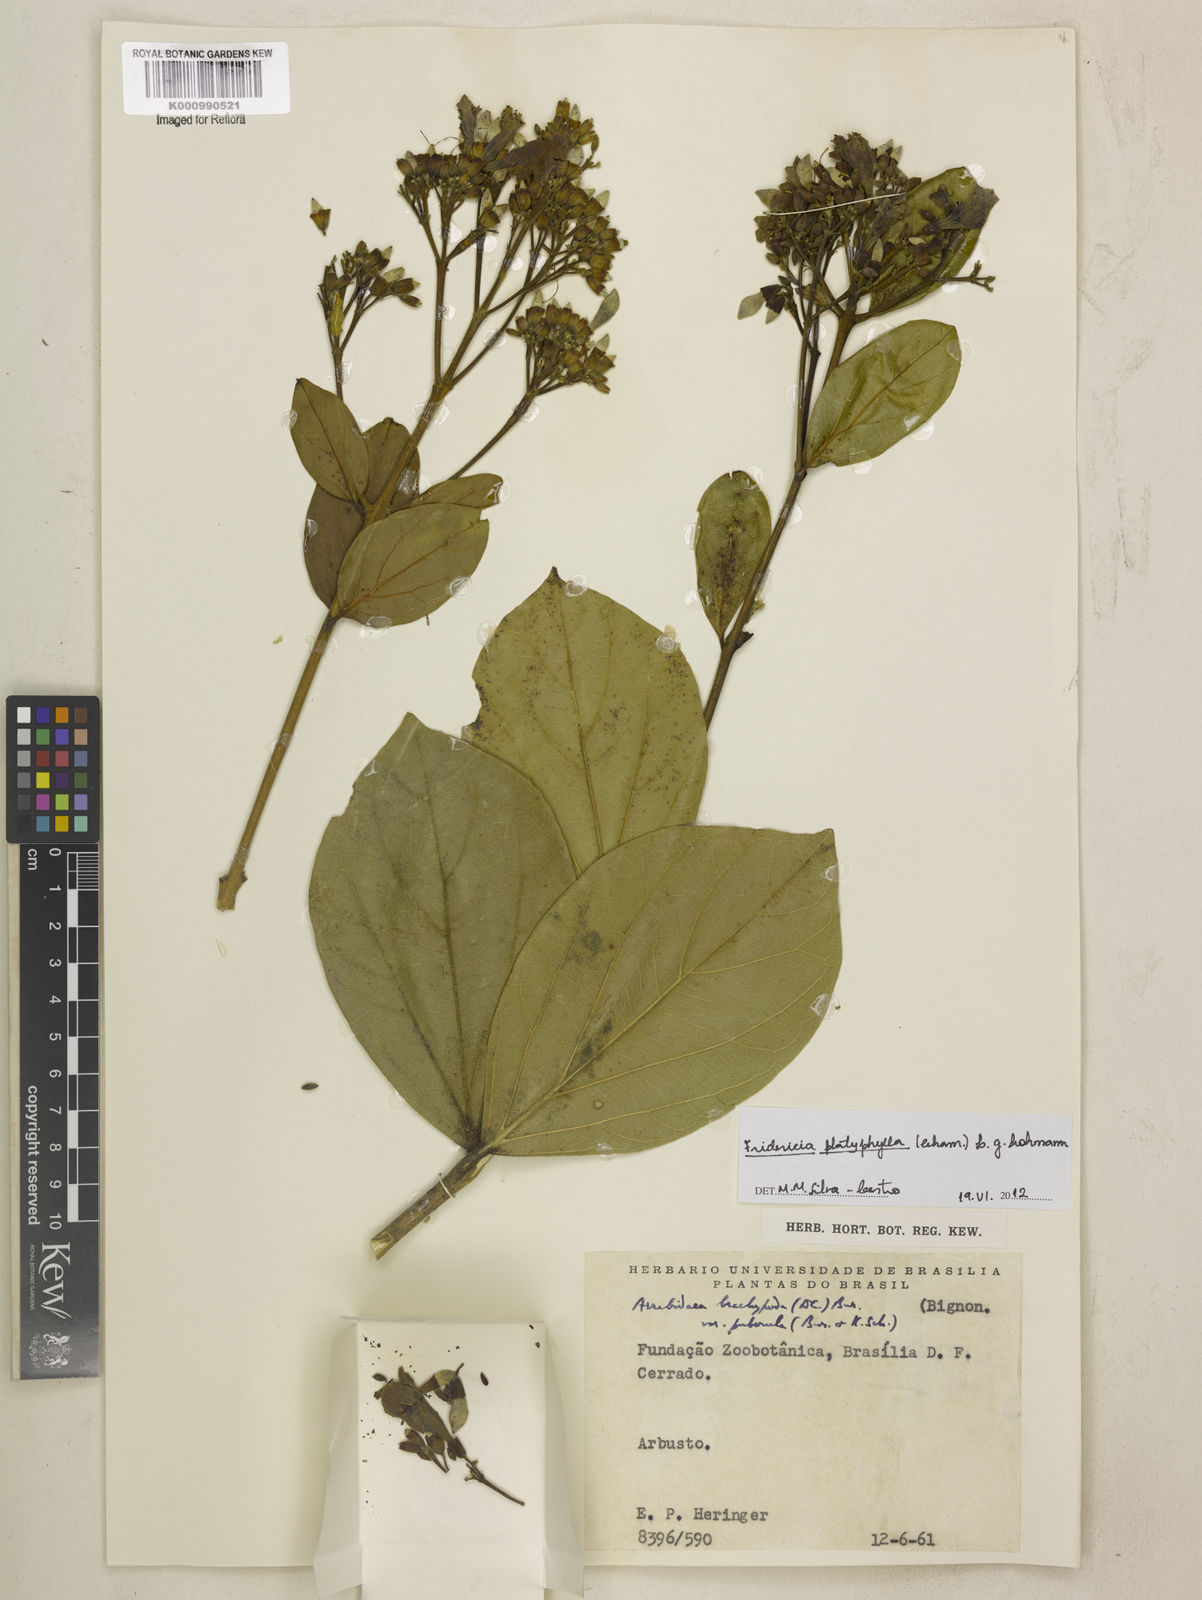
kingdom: Plantae
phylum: Tracheophyta
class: Magnoliopsida
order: Lamiales
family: Bignoniaceae
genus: Fridericia
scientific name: Fridericia platyphylla
